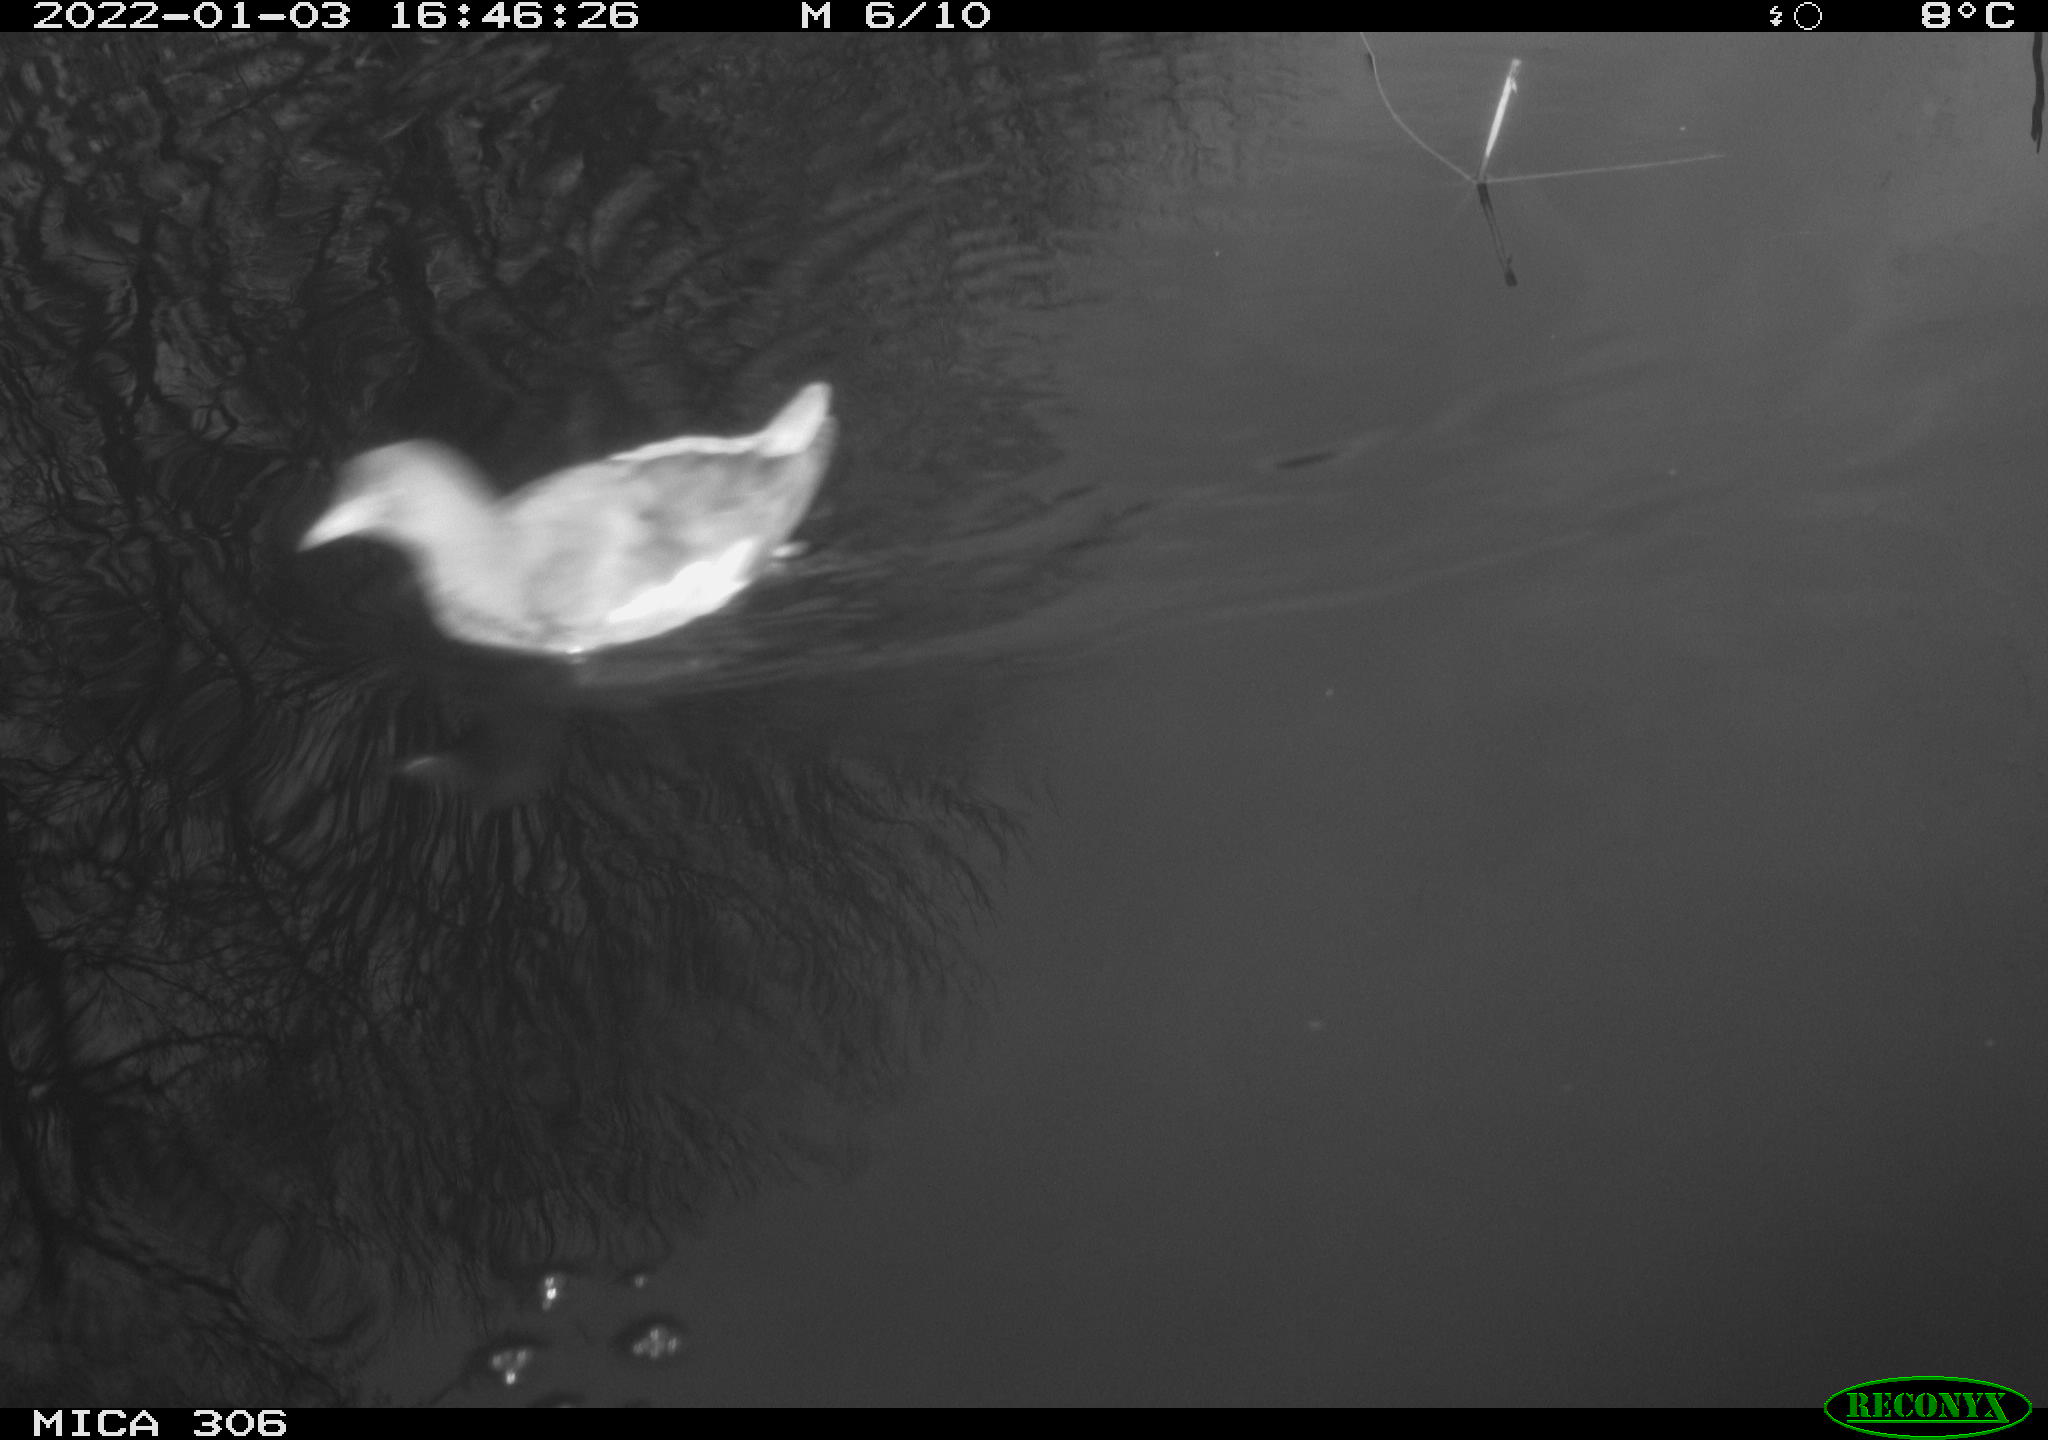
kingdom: Animalia
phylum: Chordata
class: Aves
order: Gruiformes
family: Rallidae
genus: Gallinula
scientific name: Gallinula chloropus
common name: Common moorhen
